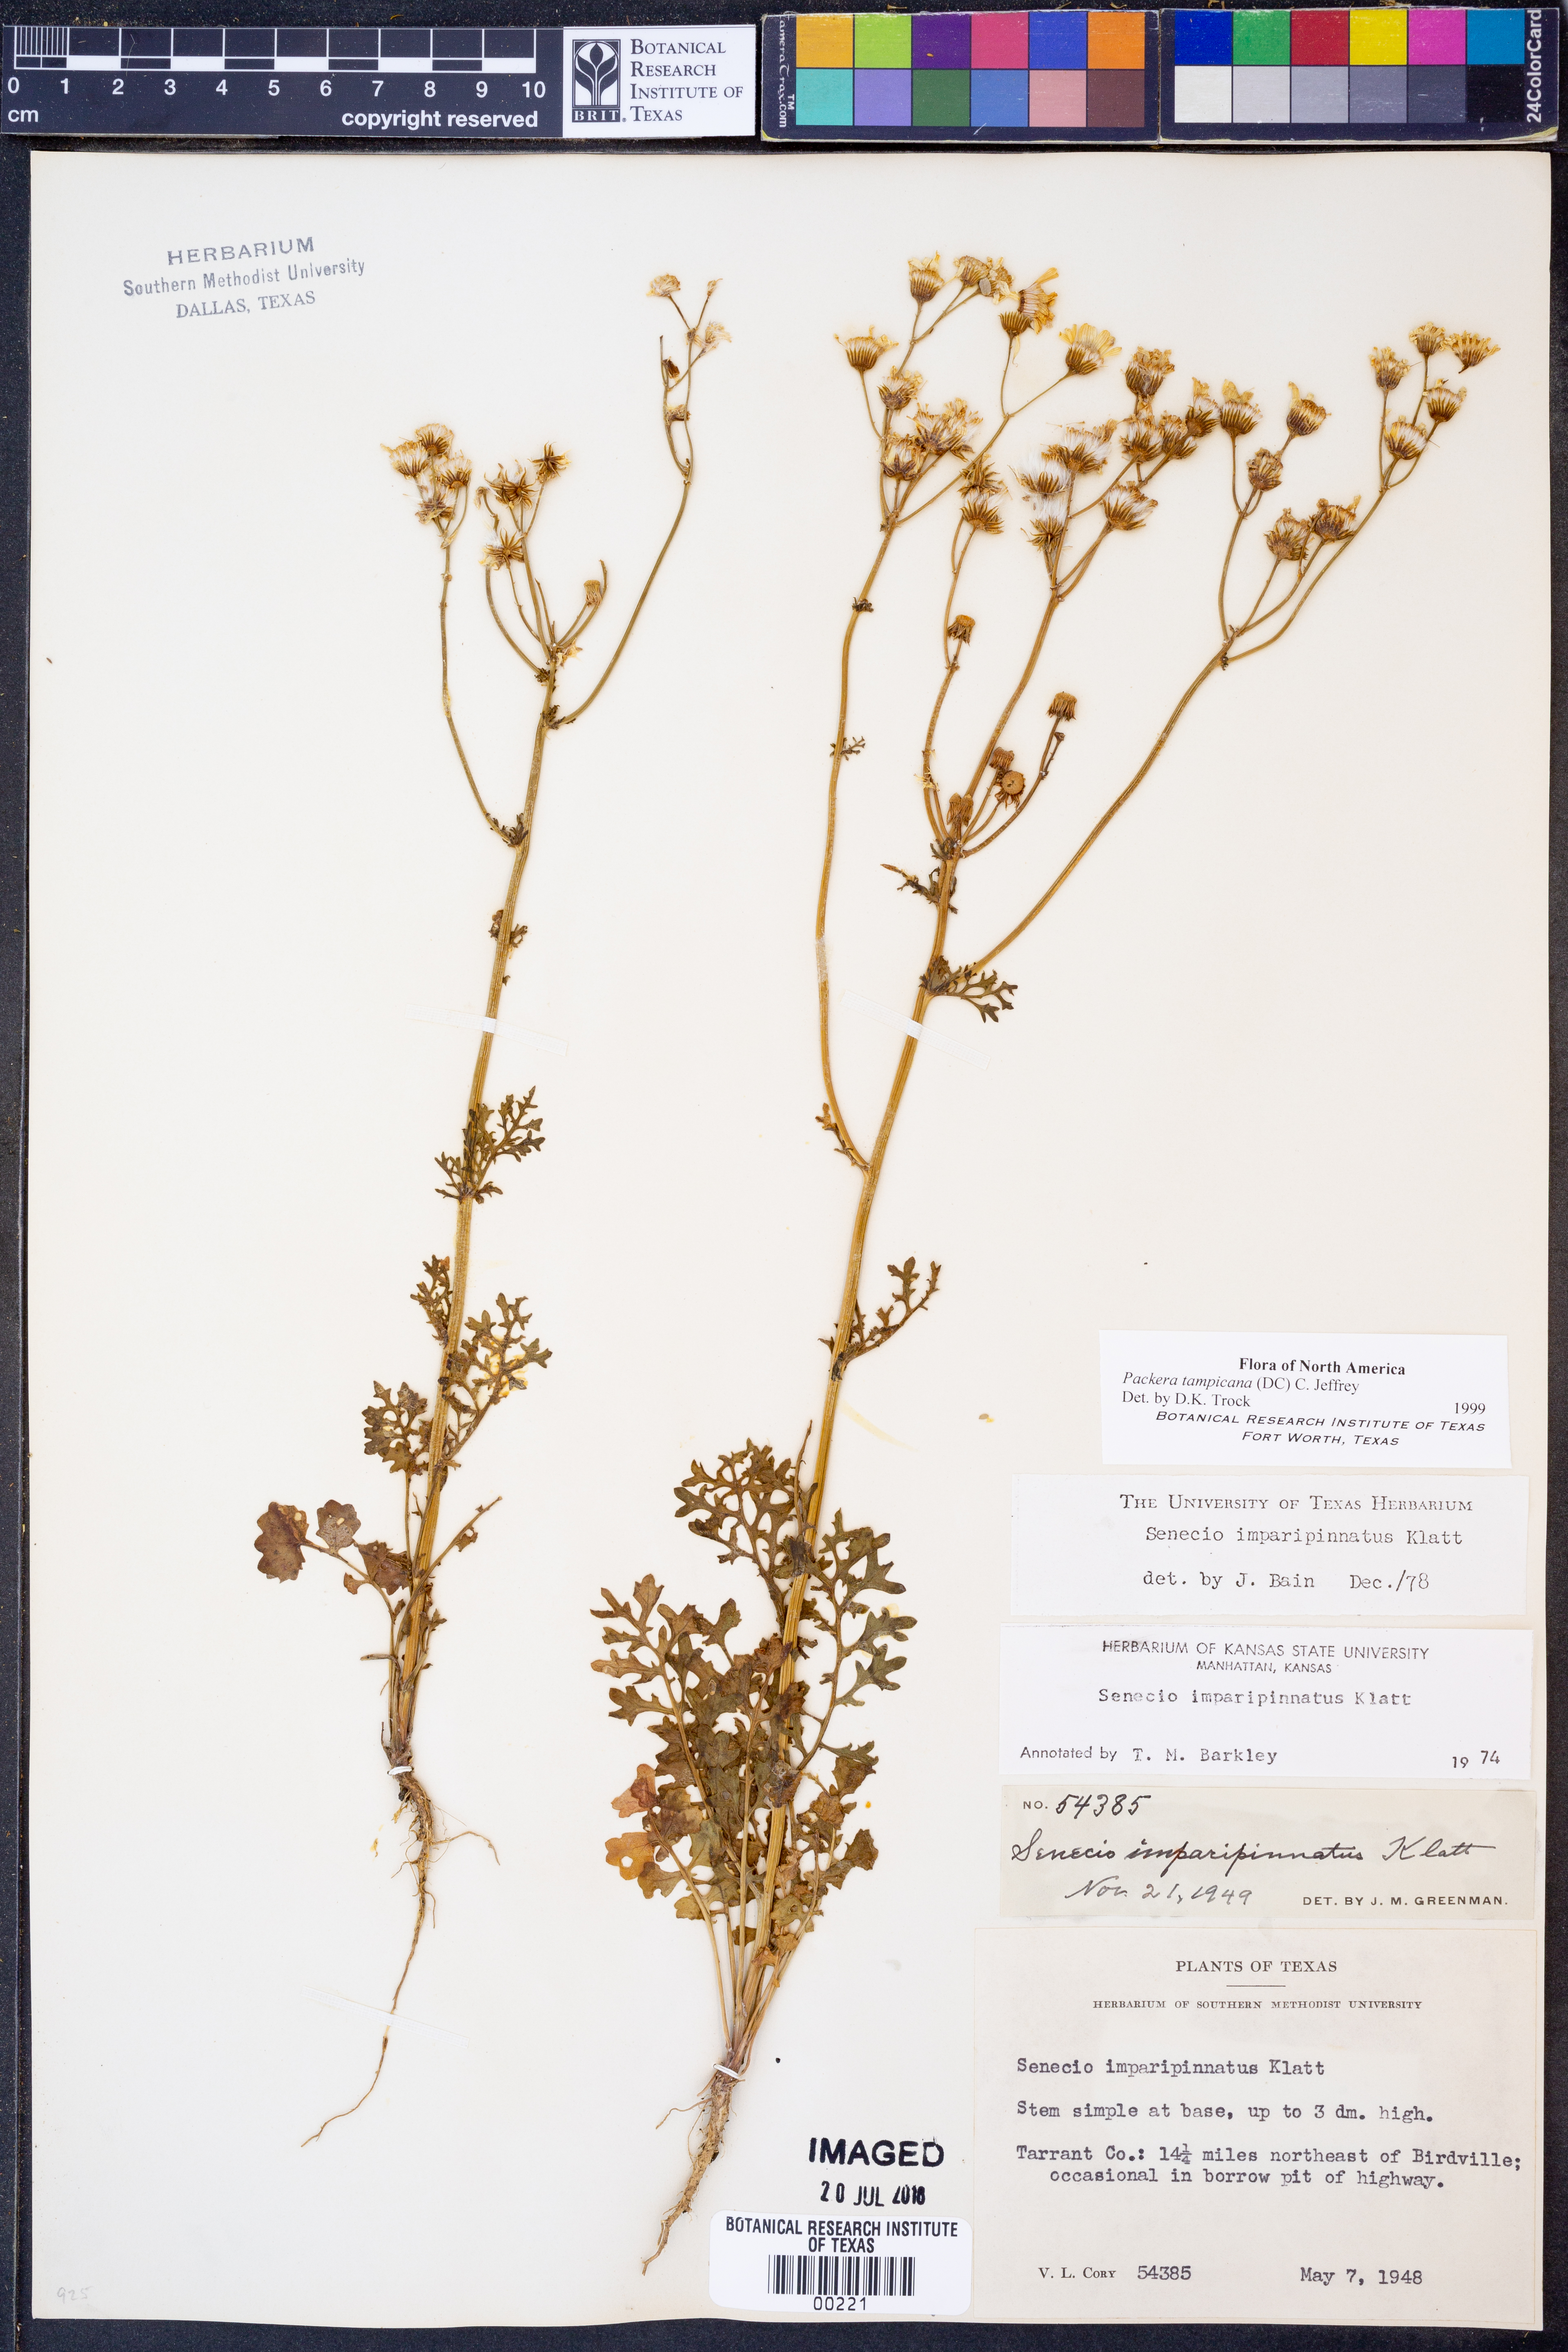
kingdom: Plantae
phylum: Tracheophyta
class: Magnoliopsida
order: Asterales
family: Asteraceae
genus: Packera
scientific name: Packera tampicana
